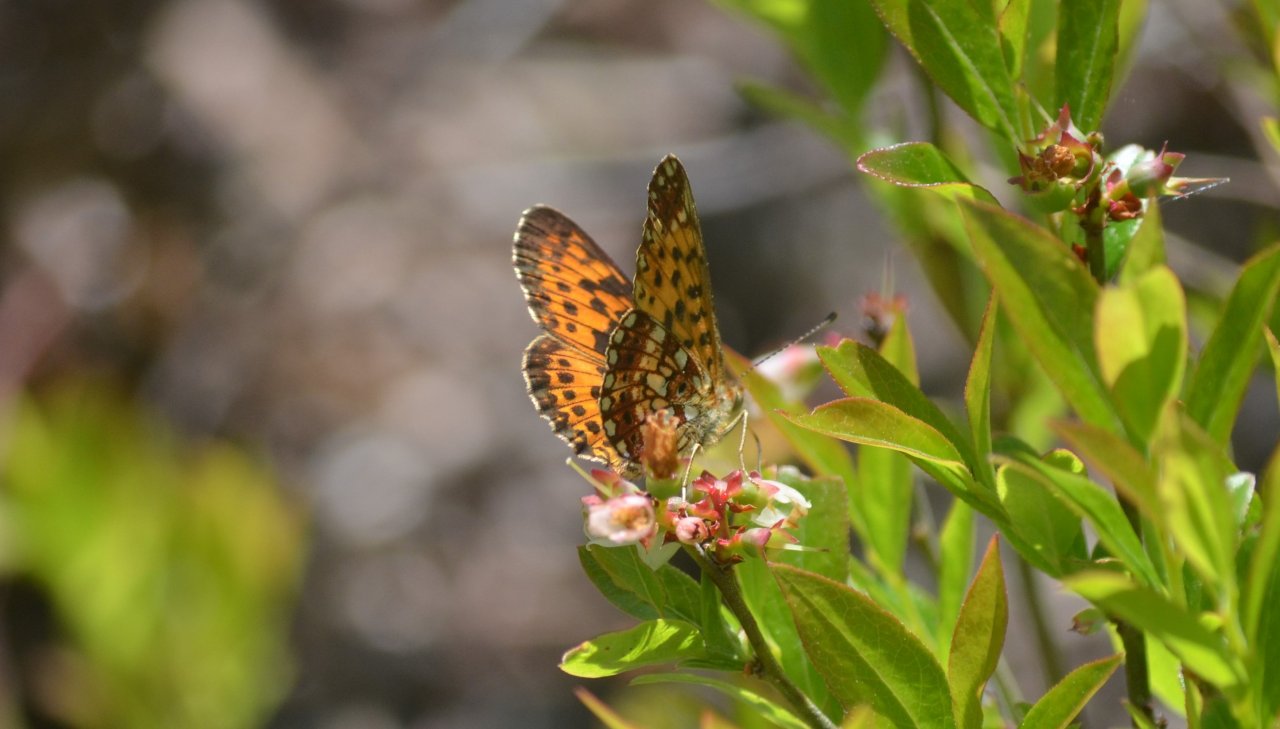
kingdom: Animalia
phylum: Arthropoda
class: Insecta
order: Lepidoptera
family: Nymphalidae
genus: Boloria
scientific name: Boloria selene
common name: Silver-bordered Fritillary
